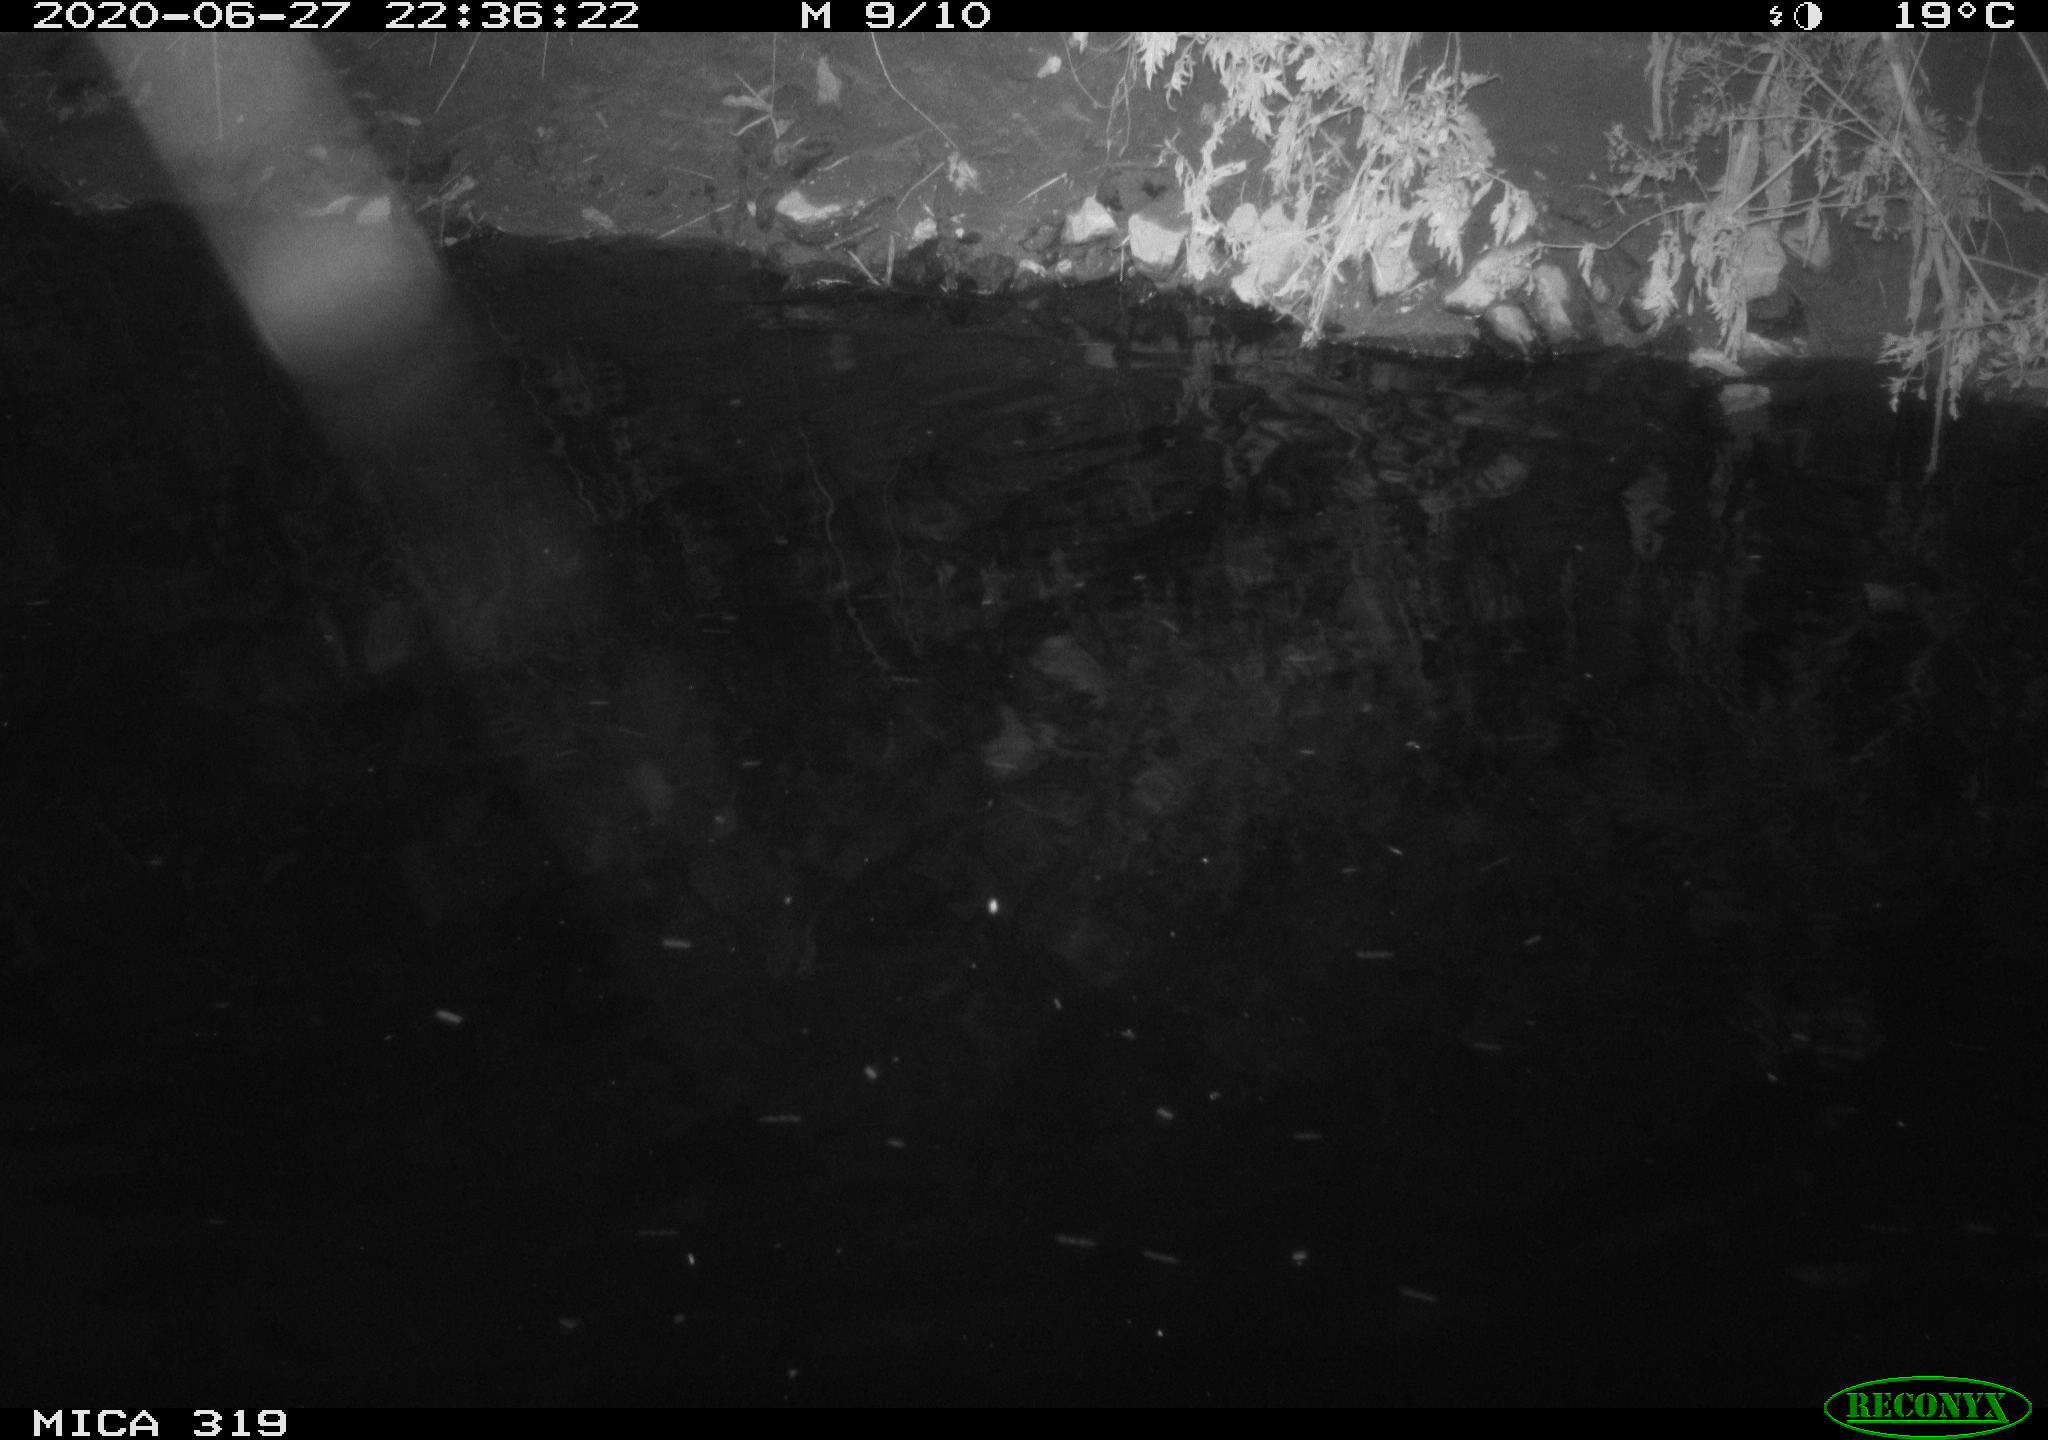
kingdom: Animalia
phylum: Chordata
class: Aves
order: Anseriformes
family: Anatidae
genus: Anas
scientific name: Anas platyrhynchos
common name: Mallard
